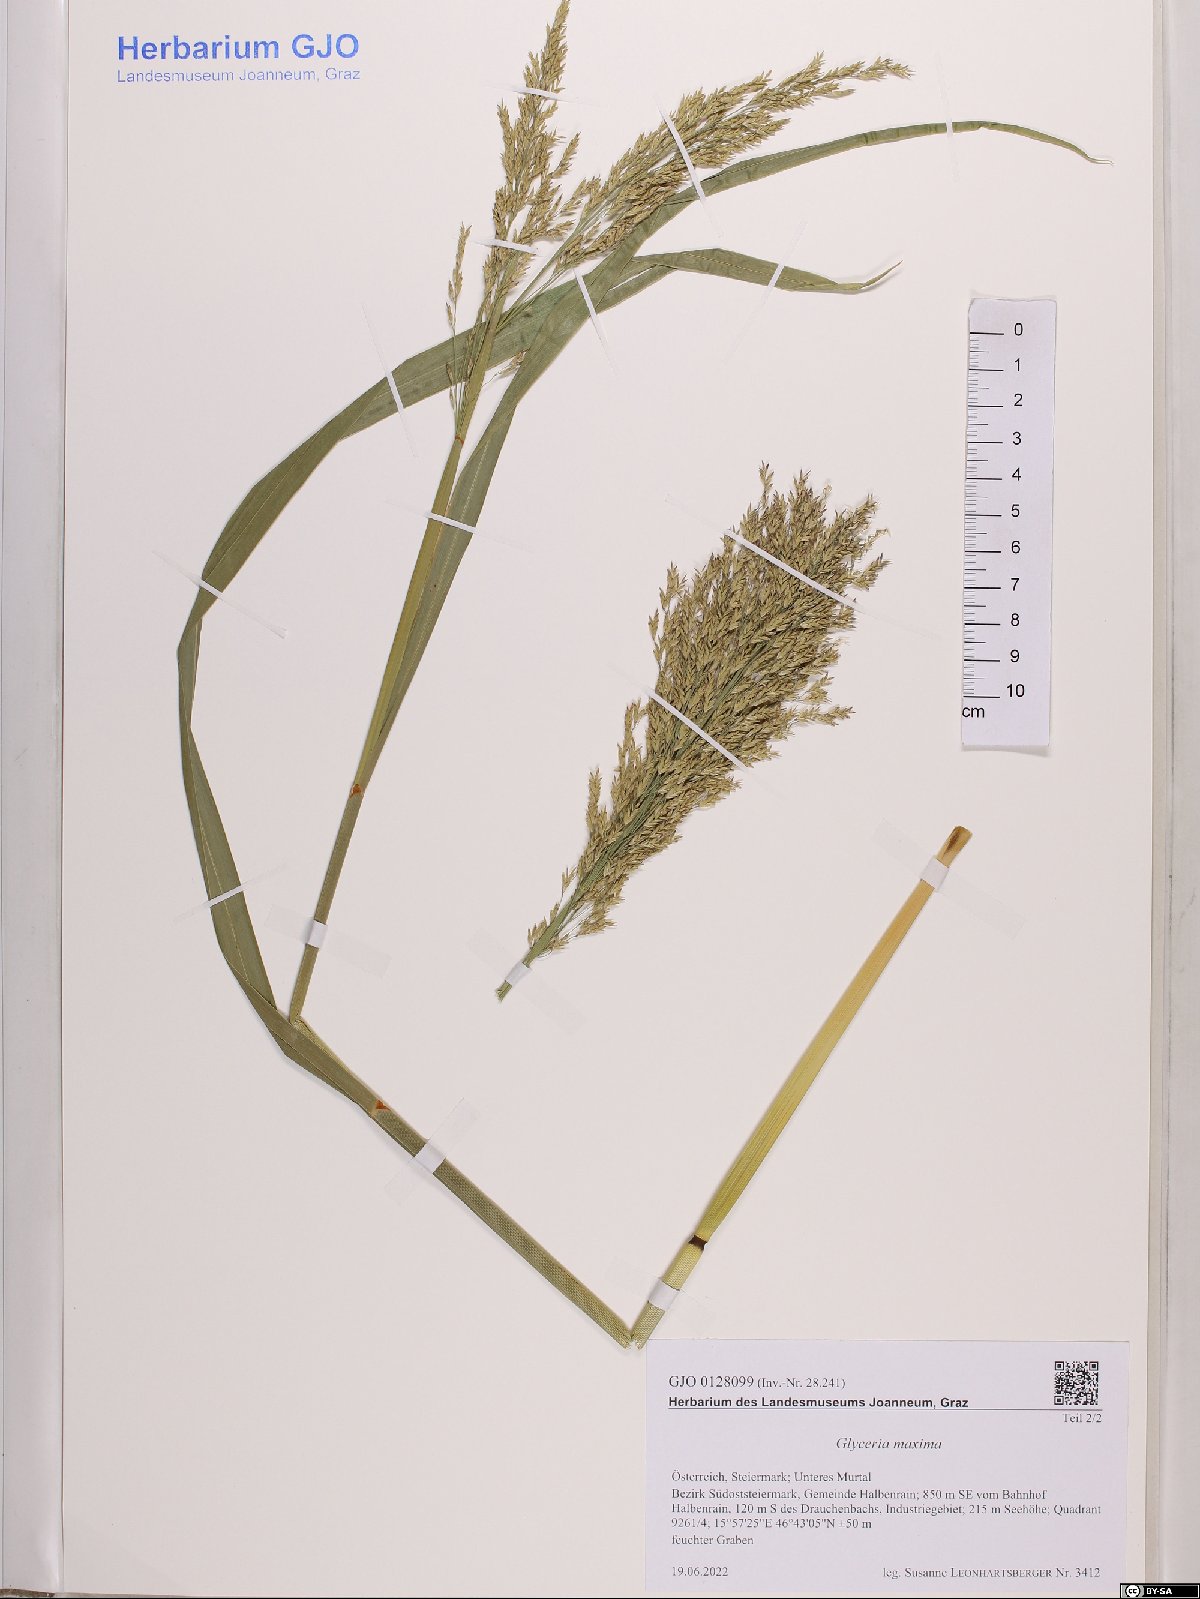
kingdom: Plantae
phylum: Tracheophyta
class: Liliopsida
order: Poales
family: Poaceae
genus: Glyceria
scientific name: Glyceria maxima
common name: Reed mannagrass
